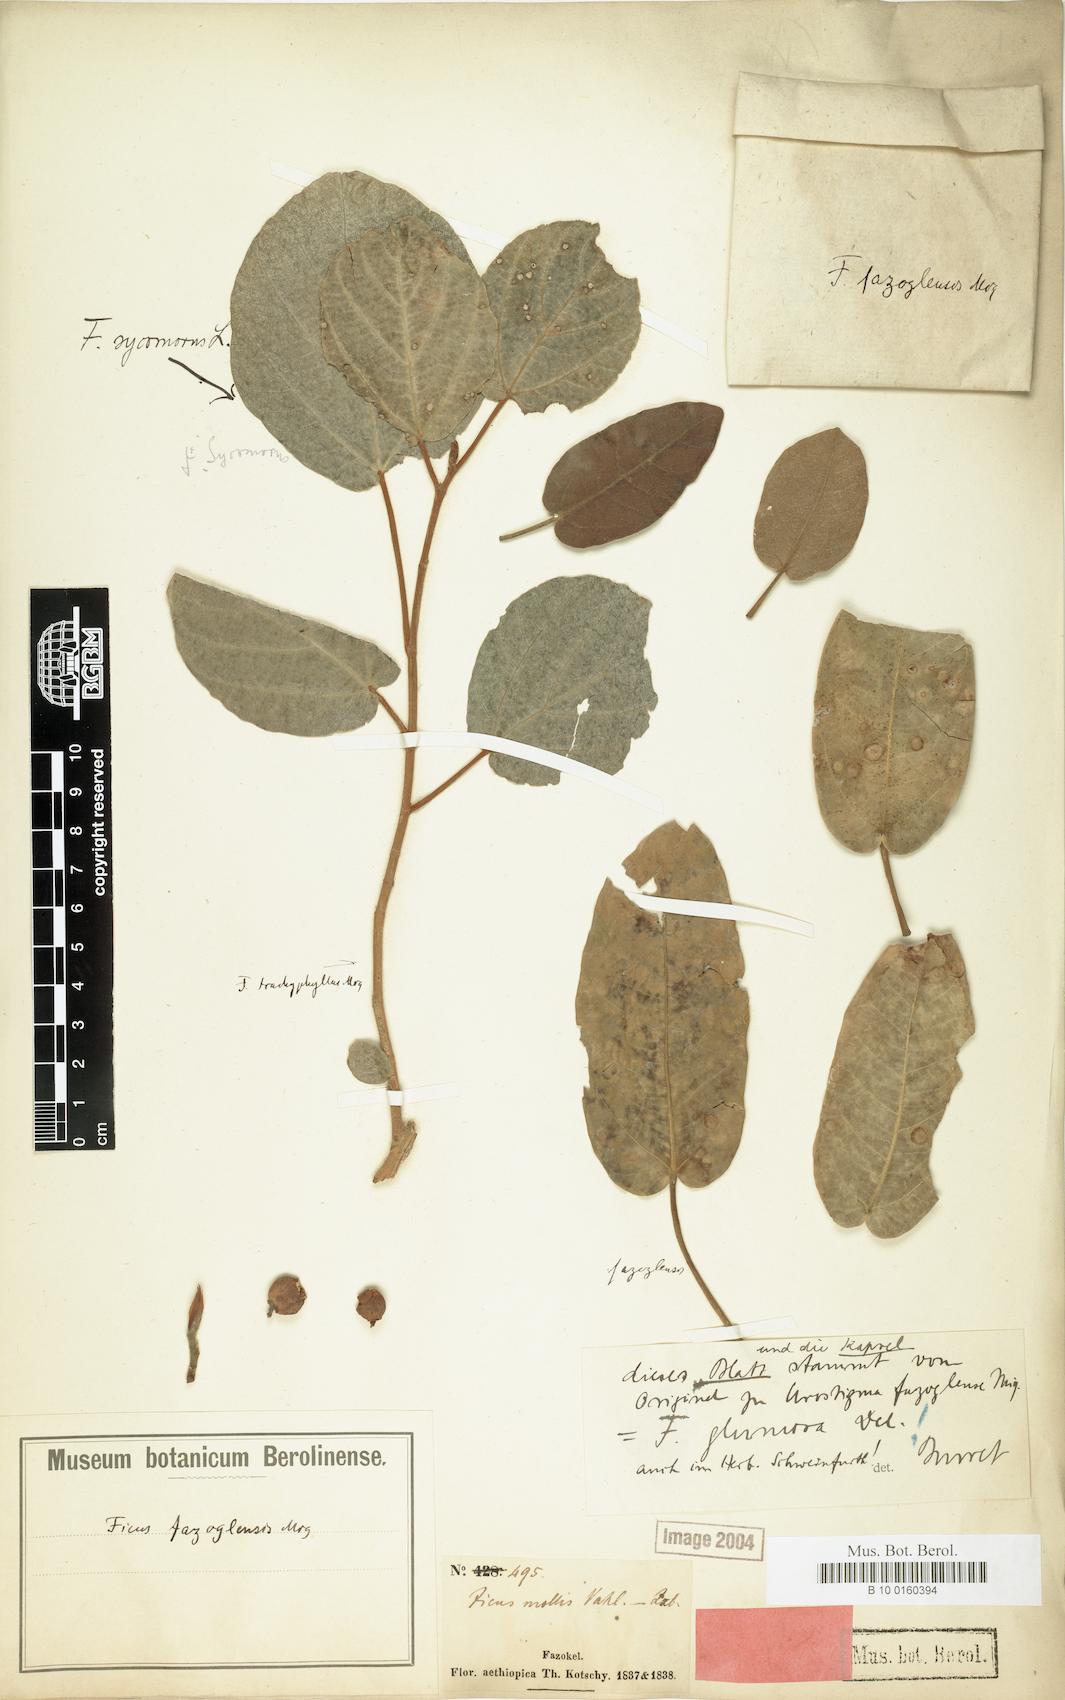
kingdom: Plantae
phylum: Tracheophyta
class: Magnoliopsida
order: Rosales
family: Moraceae
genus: Ficus
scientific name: Ficus glumosa
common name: Hairy rock fig
